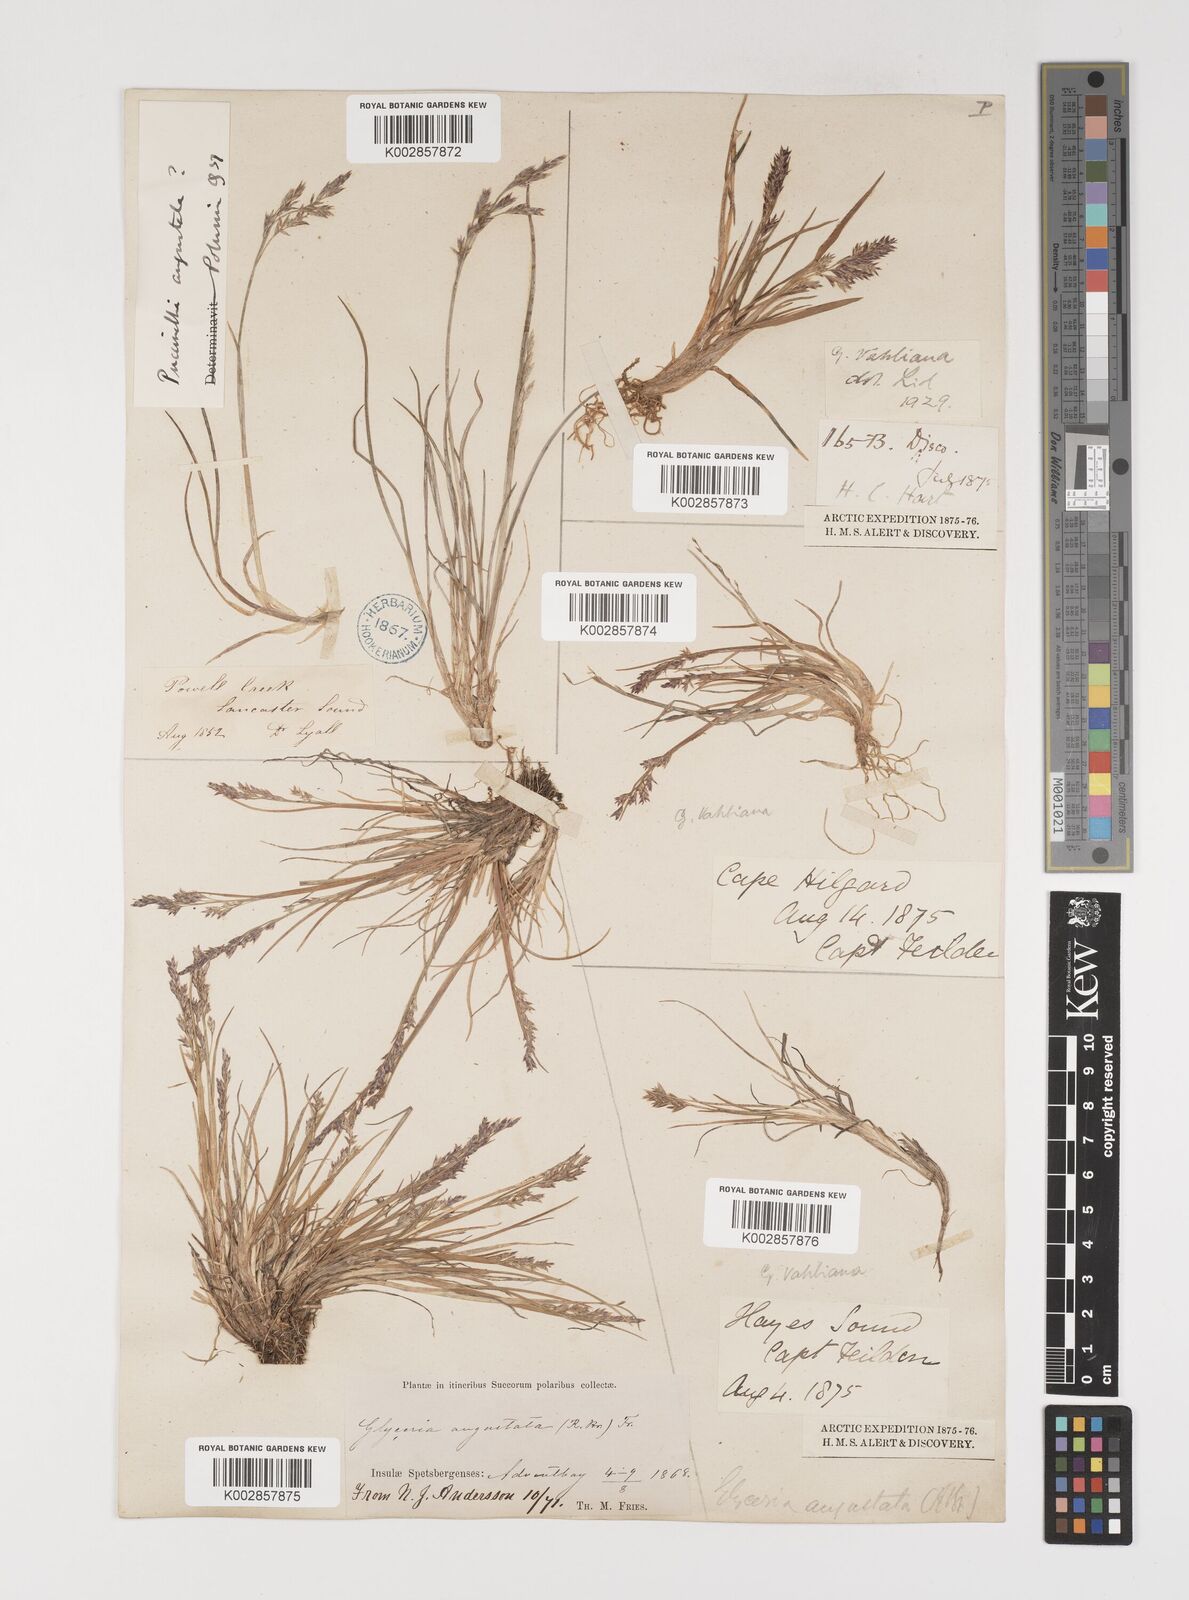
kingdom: Plantae
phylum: Tracheophyta
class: Liliopsida
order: Poales
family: Poaceae
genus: Puccinellia
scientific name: Puccinellia vahliana
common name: Vahl's alkaligrass
